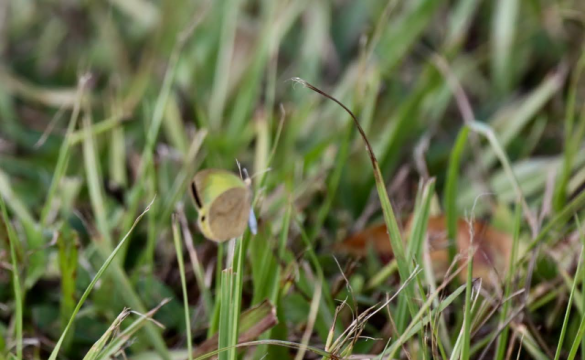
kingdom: Animalia
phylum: Arthropoda
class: Insecta
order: Lepidoptera
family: Pieridae
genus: Eurema
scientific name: Eurema daira
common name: Barred Yellow
